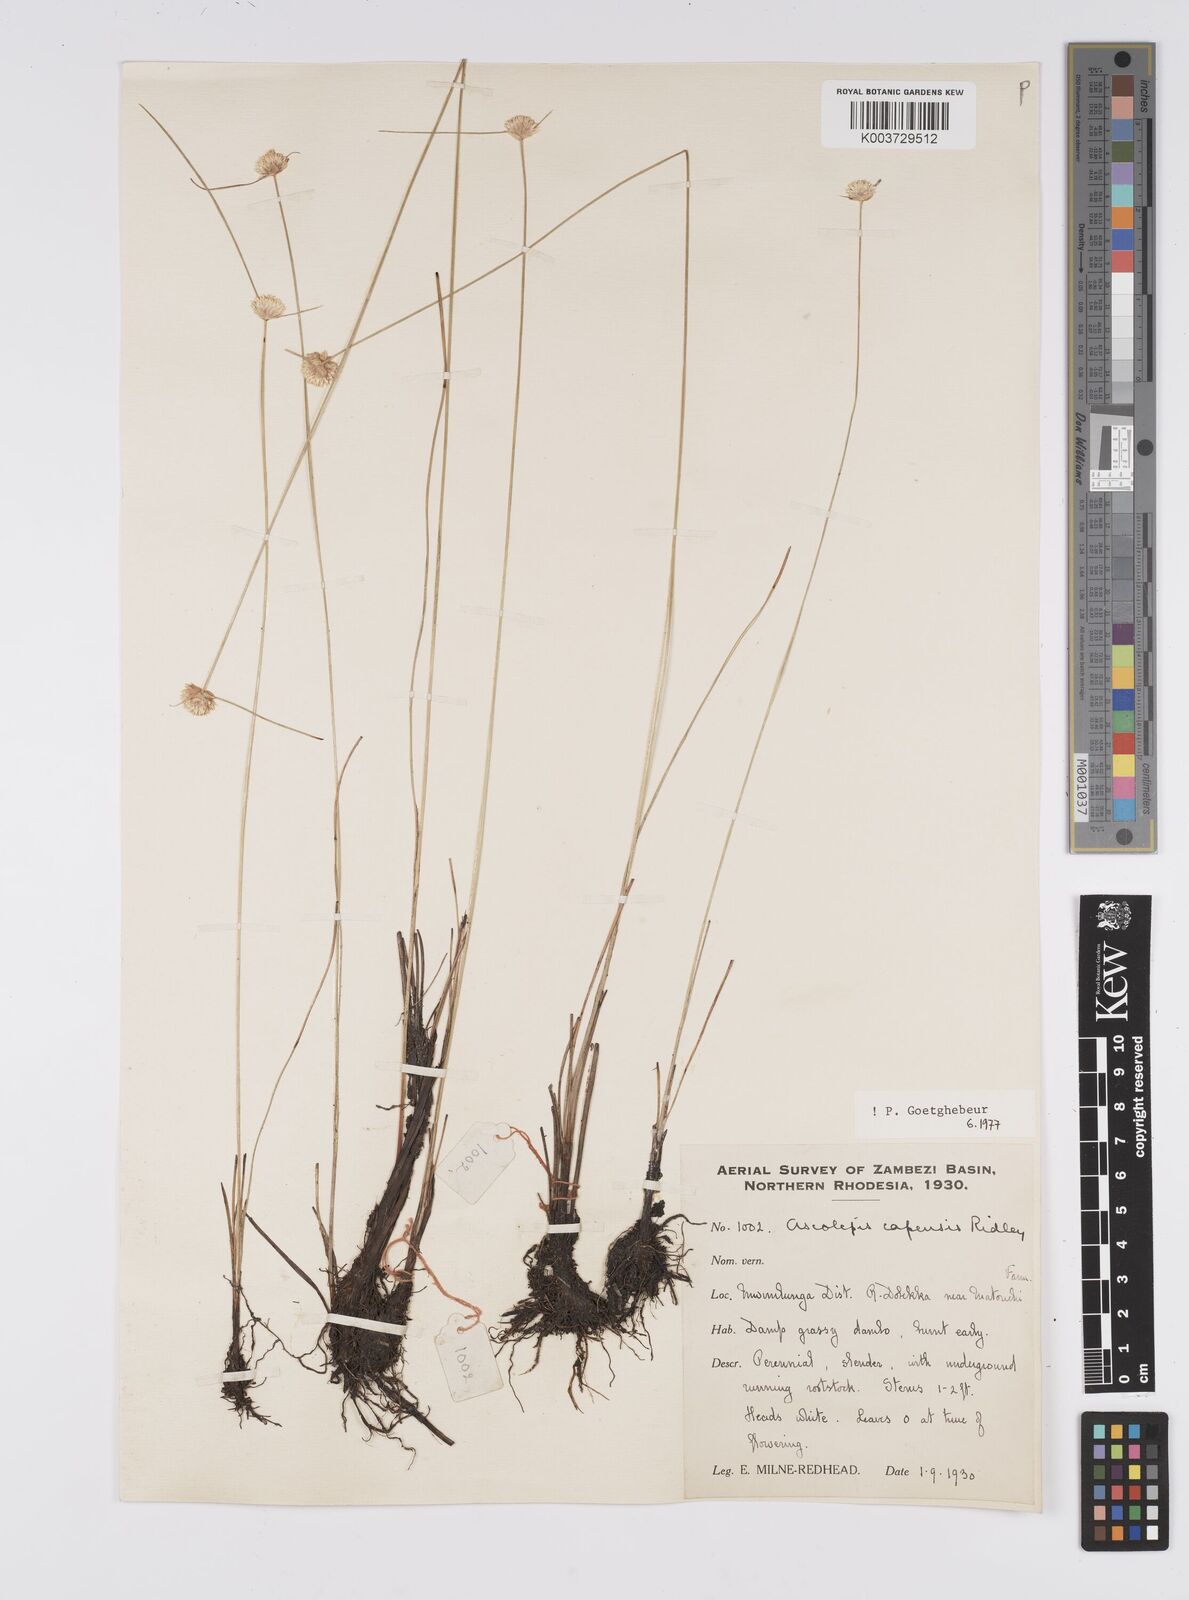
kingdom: Plantae
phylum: Tracheophyta
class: Liliopsida
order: Poales
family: Cyperaceae
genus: Cyperus
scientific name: Cyperus
